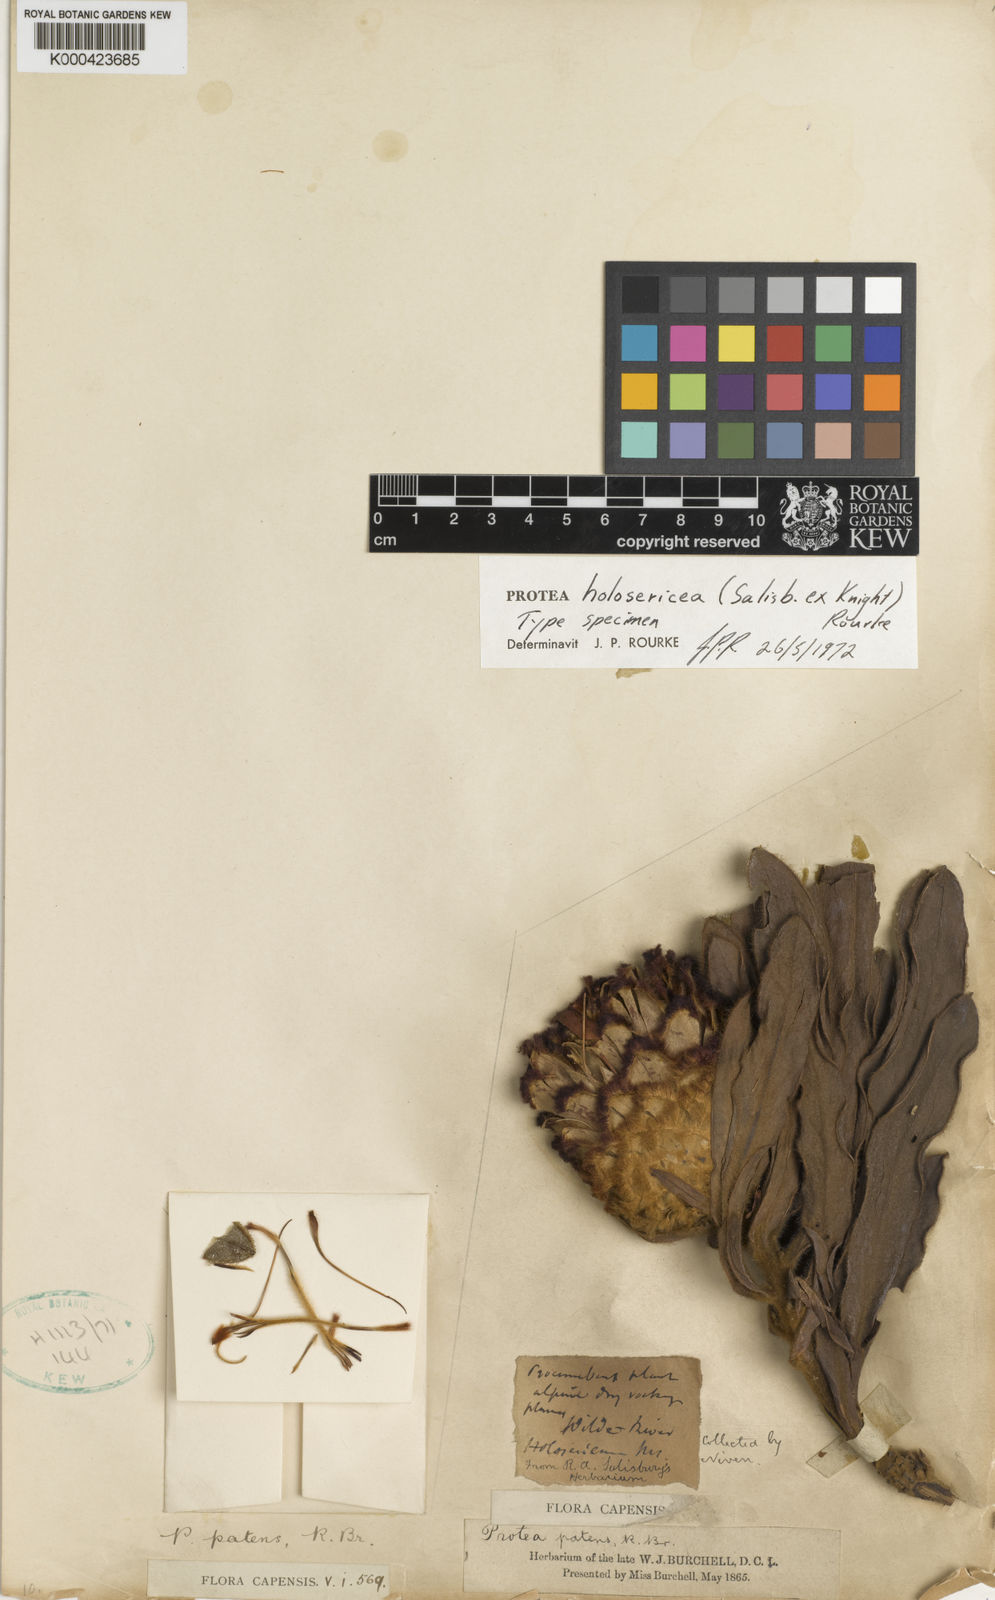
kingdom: Plantae
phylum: Tracheophyta
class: Magnoliopsida
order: Proteales
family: Proteaceae
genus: Protea
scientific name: Protea holosericea
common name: Saw-edge sugarbush
